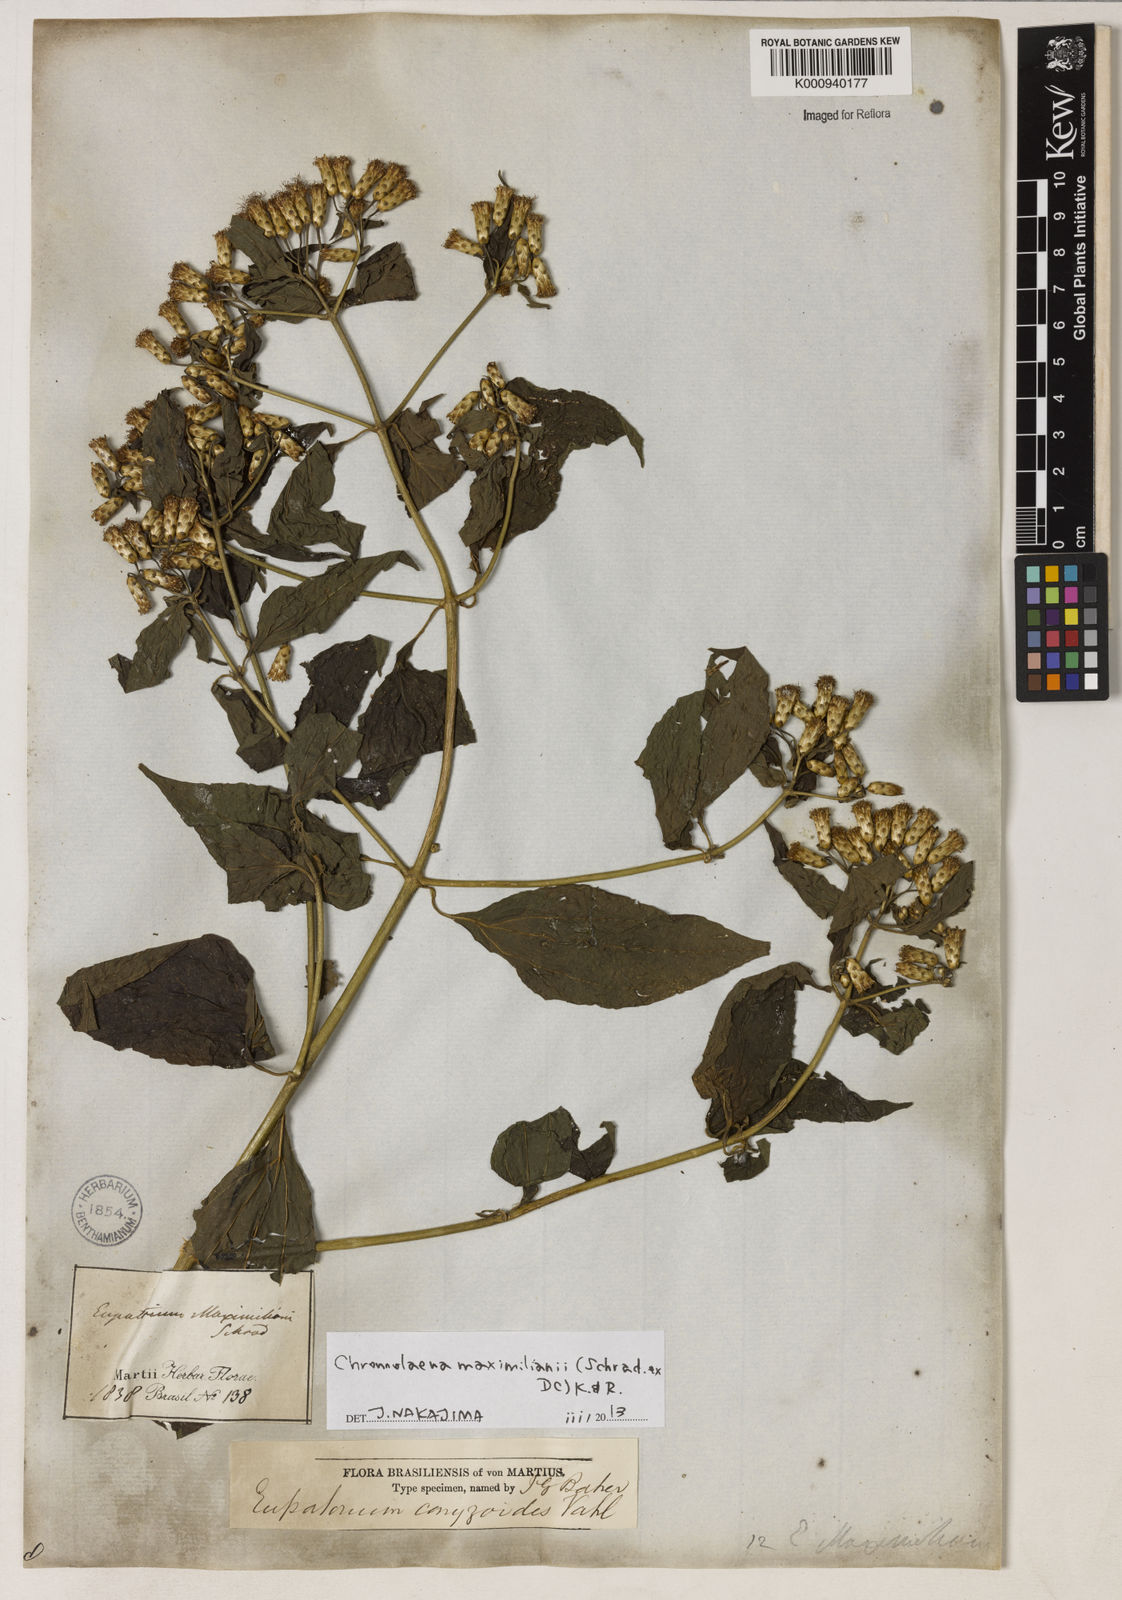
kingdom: Plantae
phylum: Tracheophyta
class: Magnoliopsida
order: Asterales
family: Asteraceae
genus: Chromolaena
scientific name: Chromolaena maximiliani
